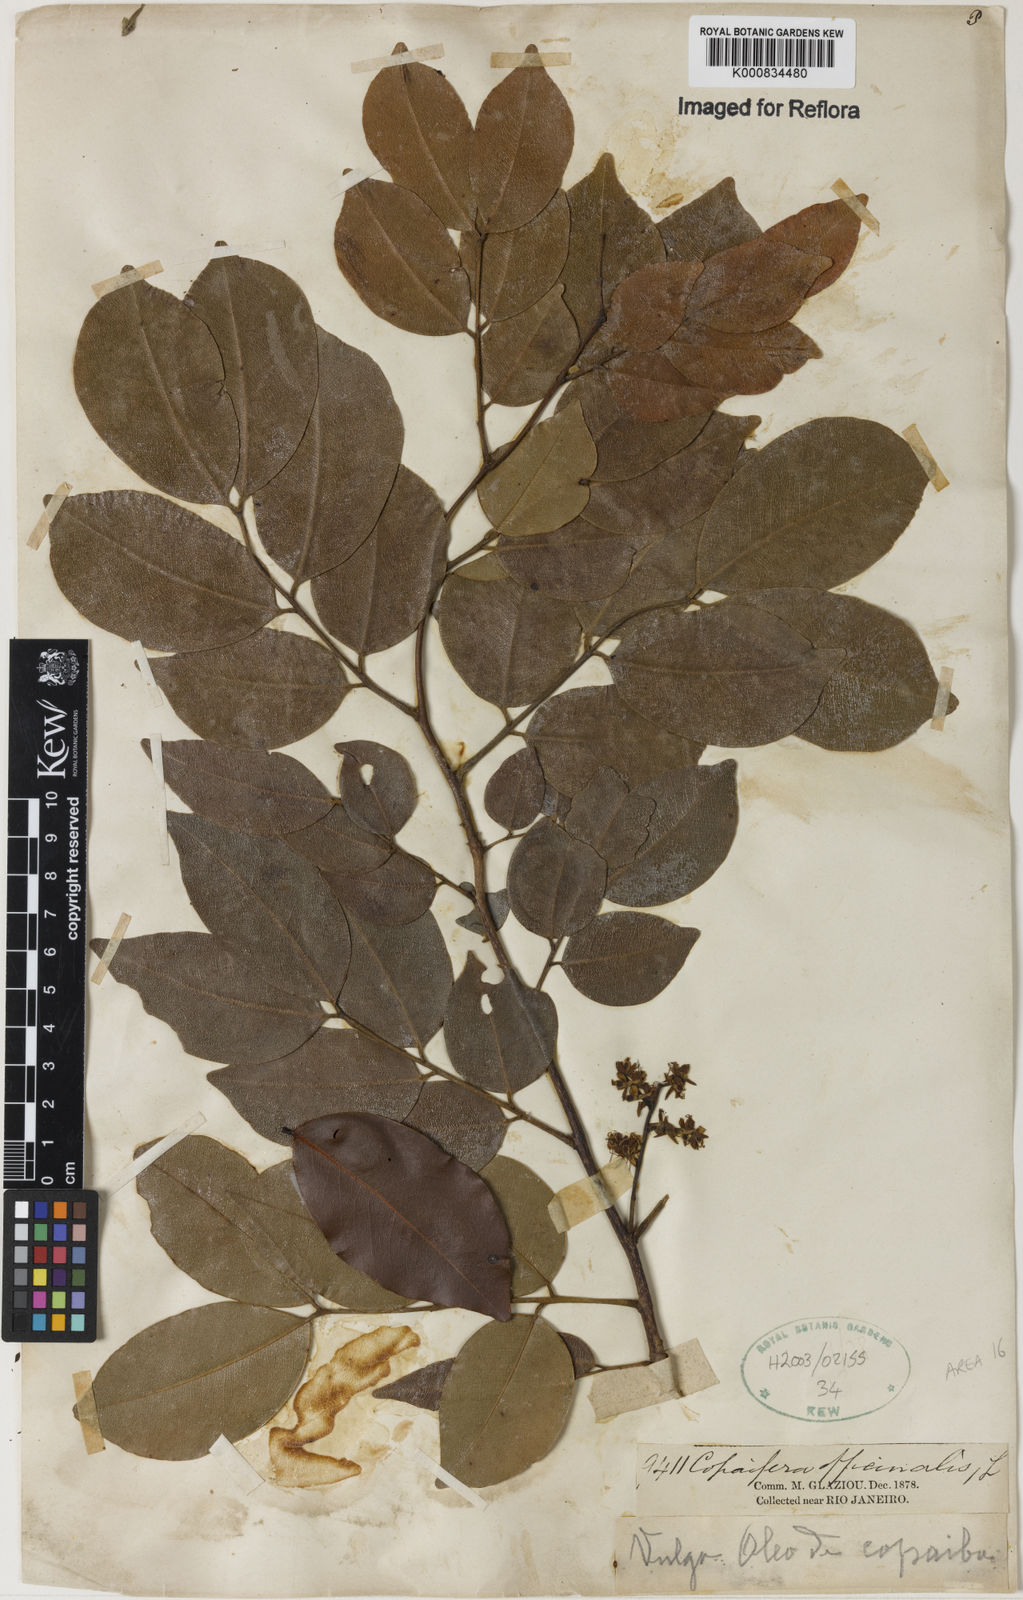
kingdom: Plantae
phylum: Tracheophyta
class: Magnoliopsida
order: Fabales
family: Fabaceae
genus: Copaifera
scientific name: Copaifera officinalis
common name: Copaiba
